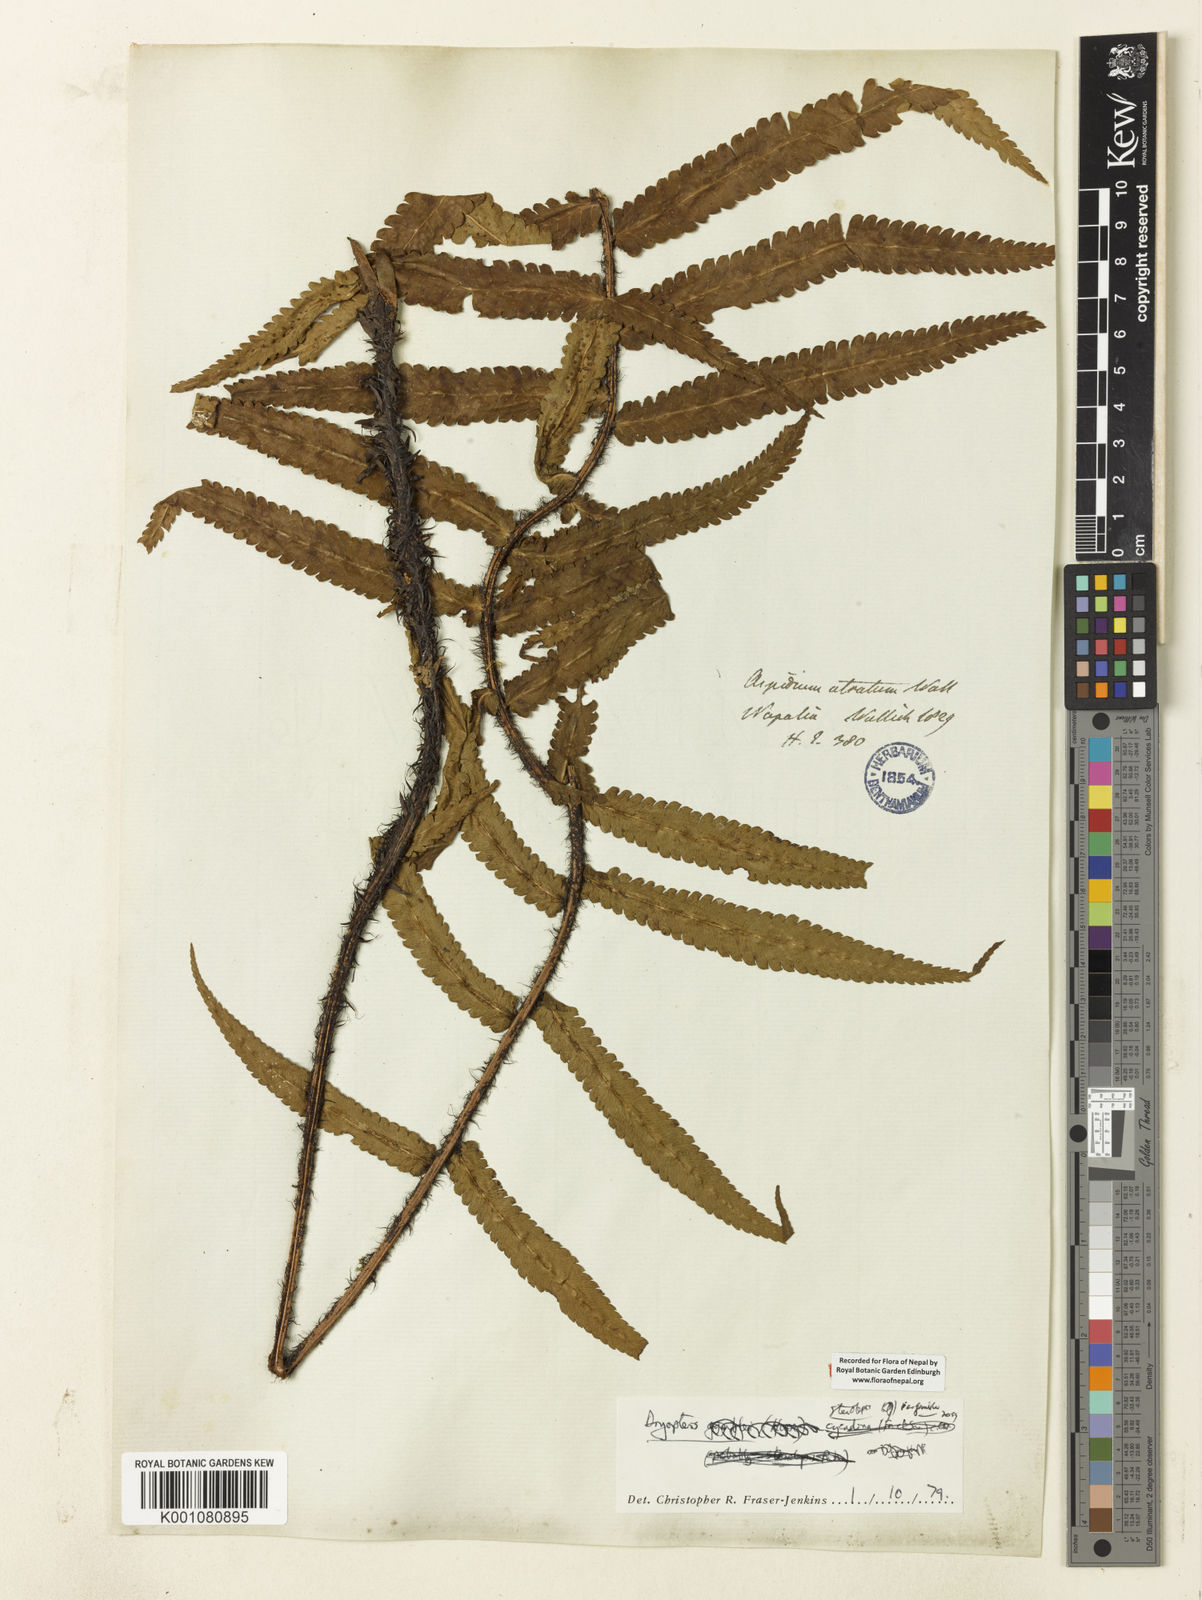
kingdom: Plantae
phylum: Tracheophyta
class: Polypodiopsida
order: Polypodiales
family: Dryopteridaceae
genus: Dryopteris
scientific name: Dryopteris stenolepis
